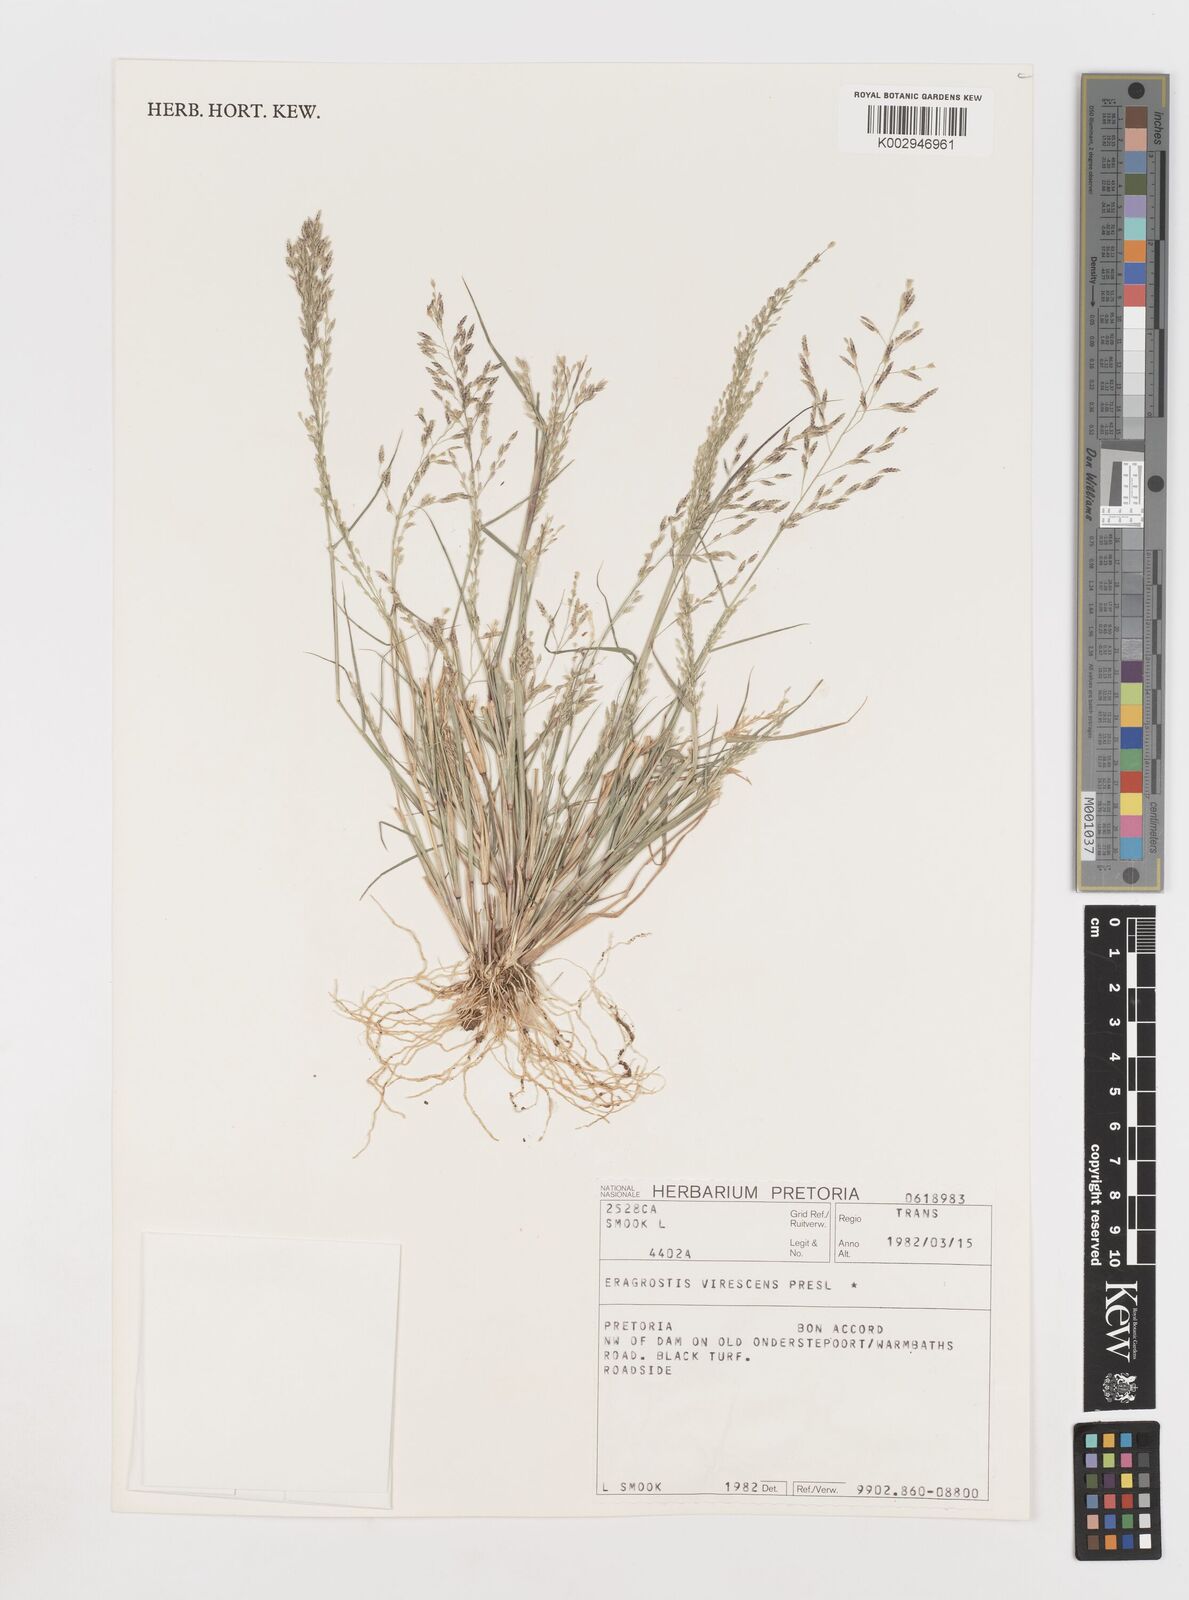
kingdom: Plantae
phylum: Tracheophyta
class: Liliopsida
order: Poales
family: Poaceae
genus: Eragrostis
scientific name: Eragrostis
